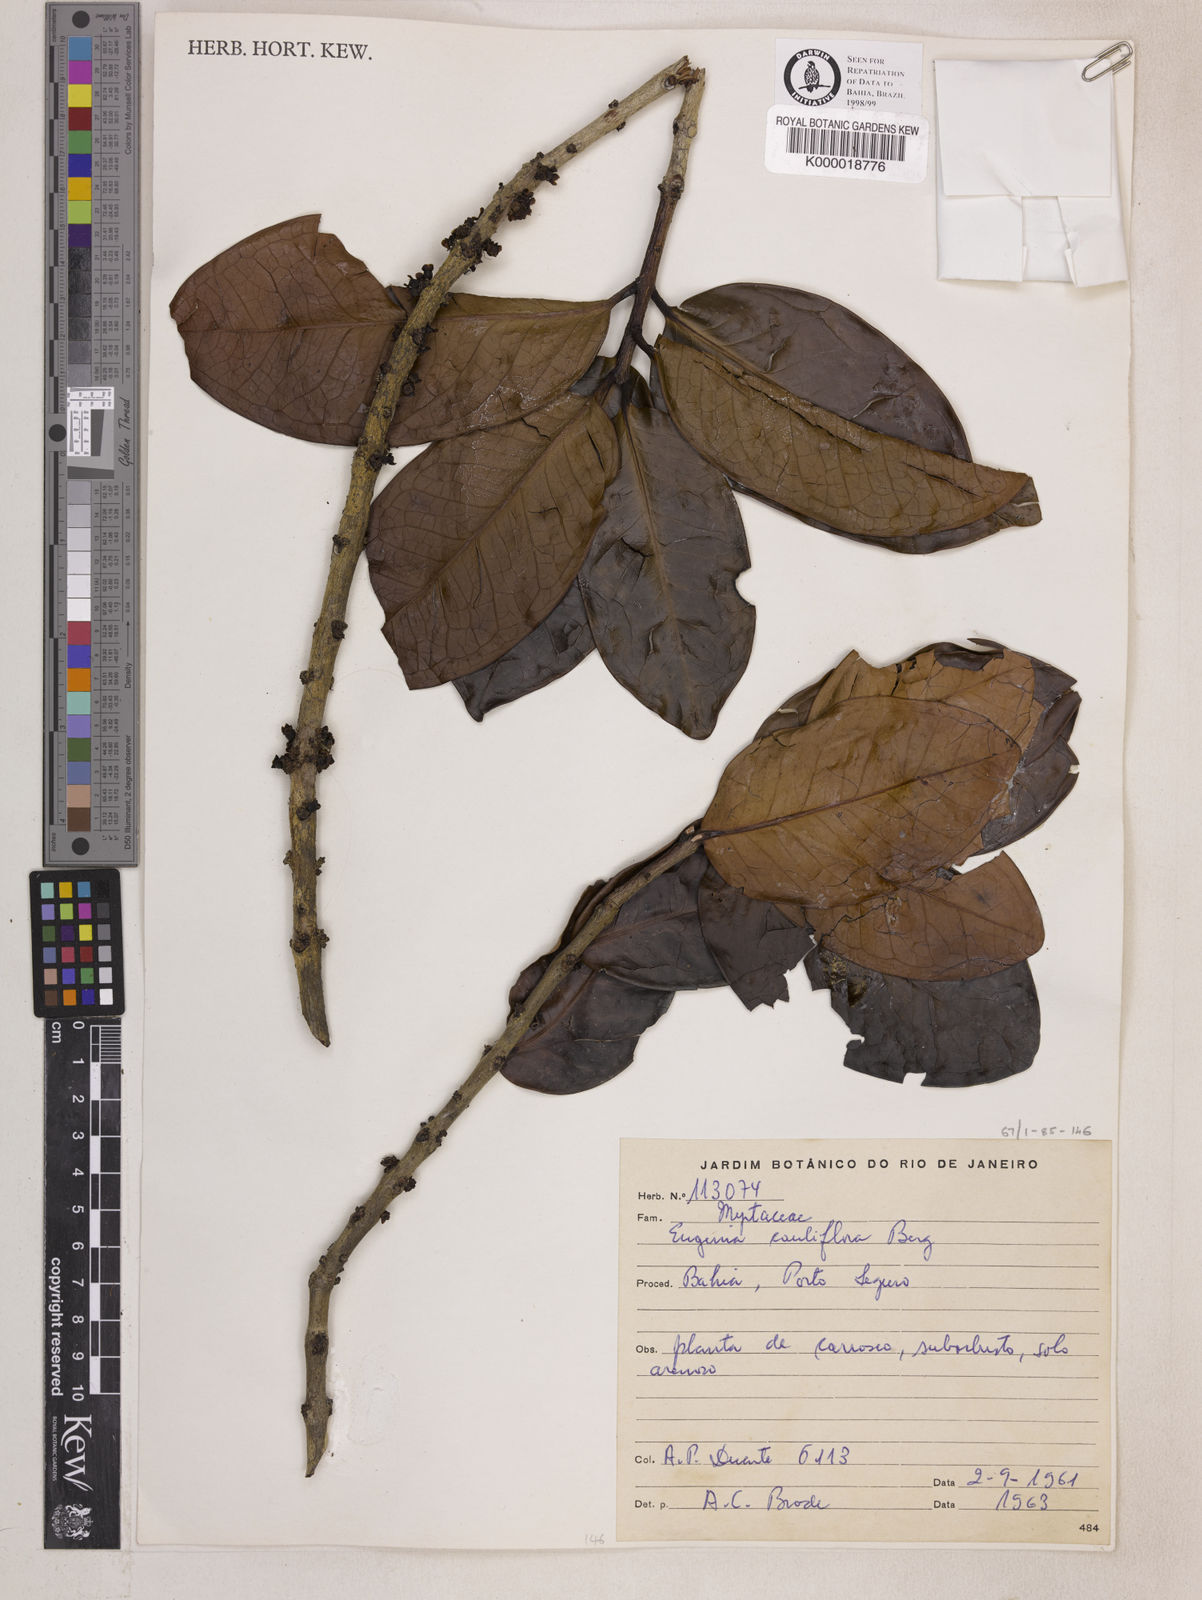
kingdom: Plantae
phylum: Tracheophyta
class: Magnoliopsida
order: Myrtales
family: Myrtaceae
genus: Plinia
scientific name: Plinia cauliflora
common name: Brazilian grapetree
